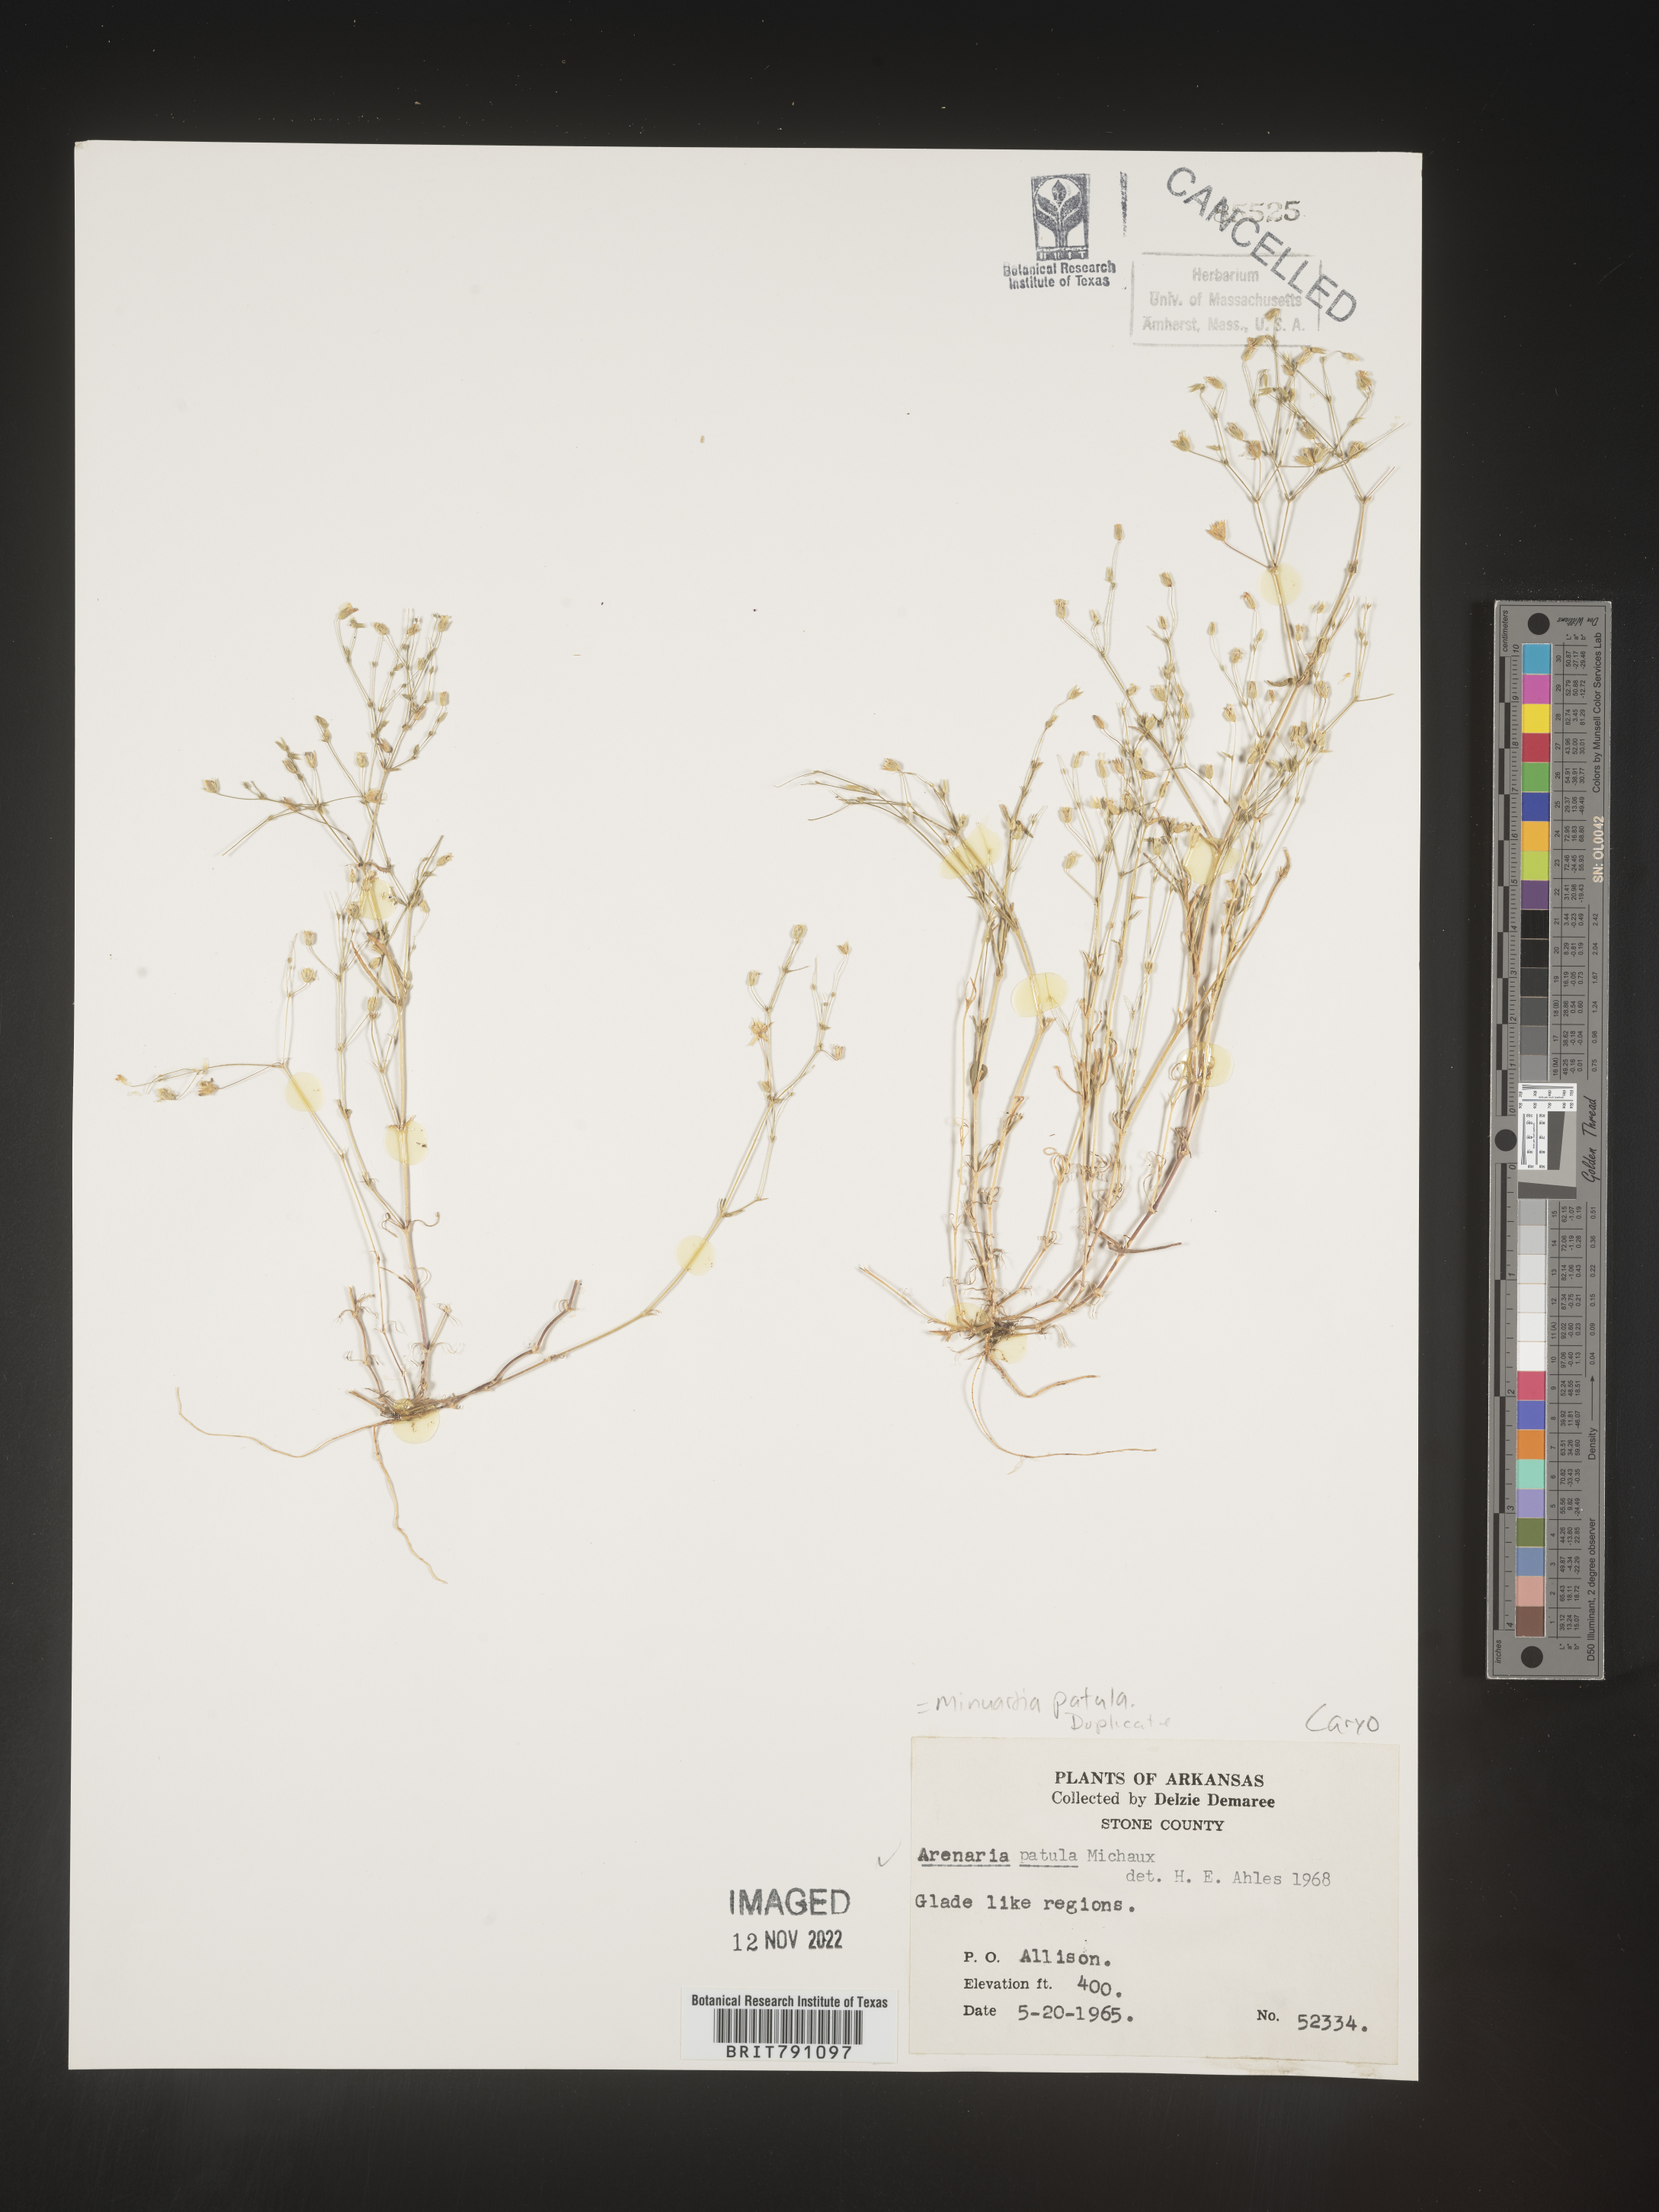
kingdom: Plantae
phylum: Tracheophyta
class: Magnoliopsida
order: Caryophyllales
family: Caryophyllaceae
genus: Mononeuria
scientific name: Mononeuria patula
